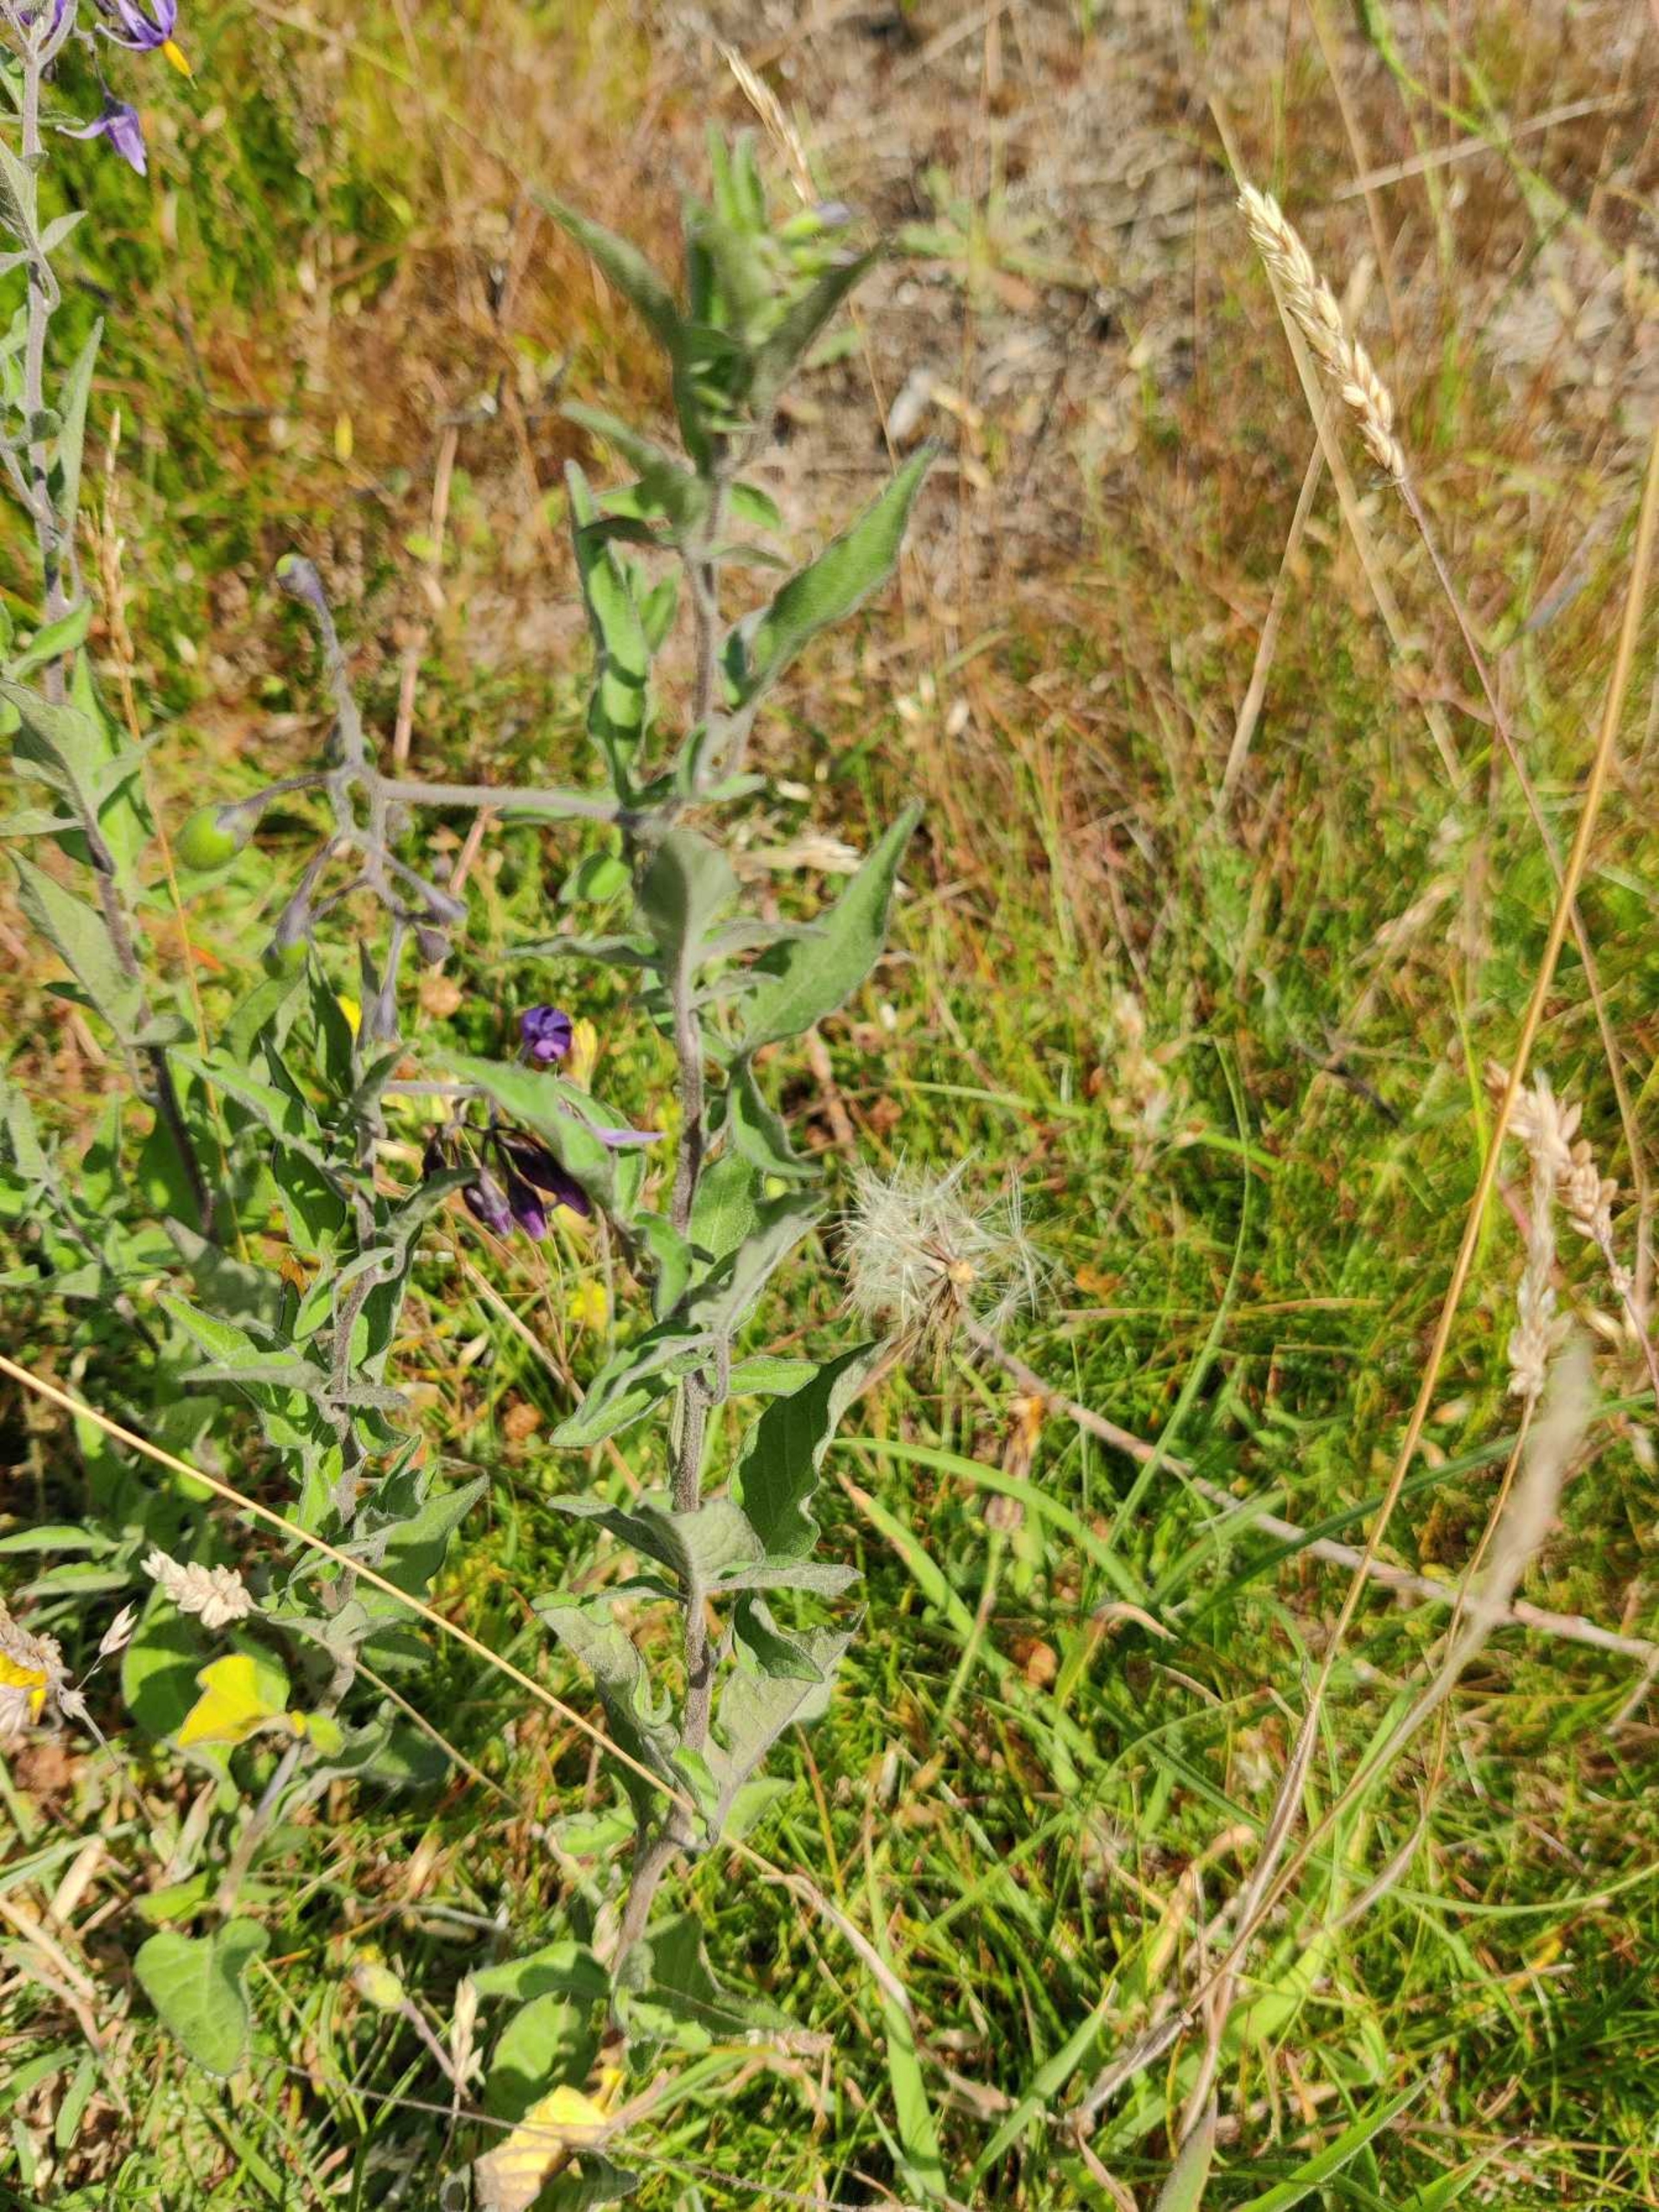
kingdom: Plantae
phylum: Tracheophyta
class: Magnoliopsida
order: Solanales
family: Solanaceae
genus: Solanum
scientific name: Solanum dulcamara
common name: Bittersød natskygge
